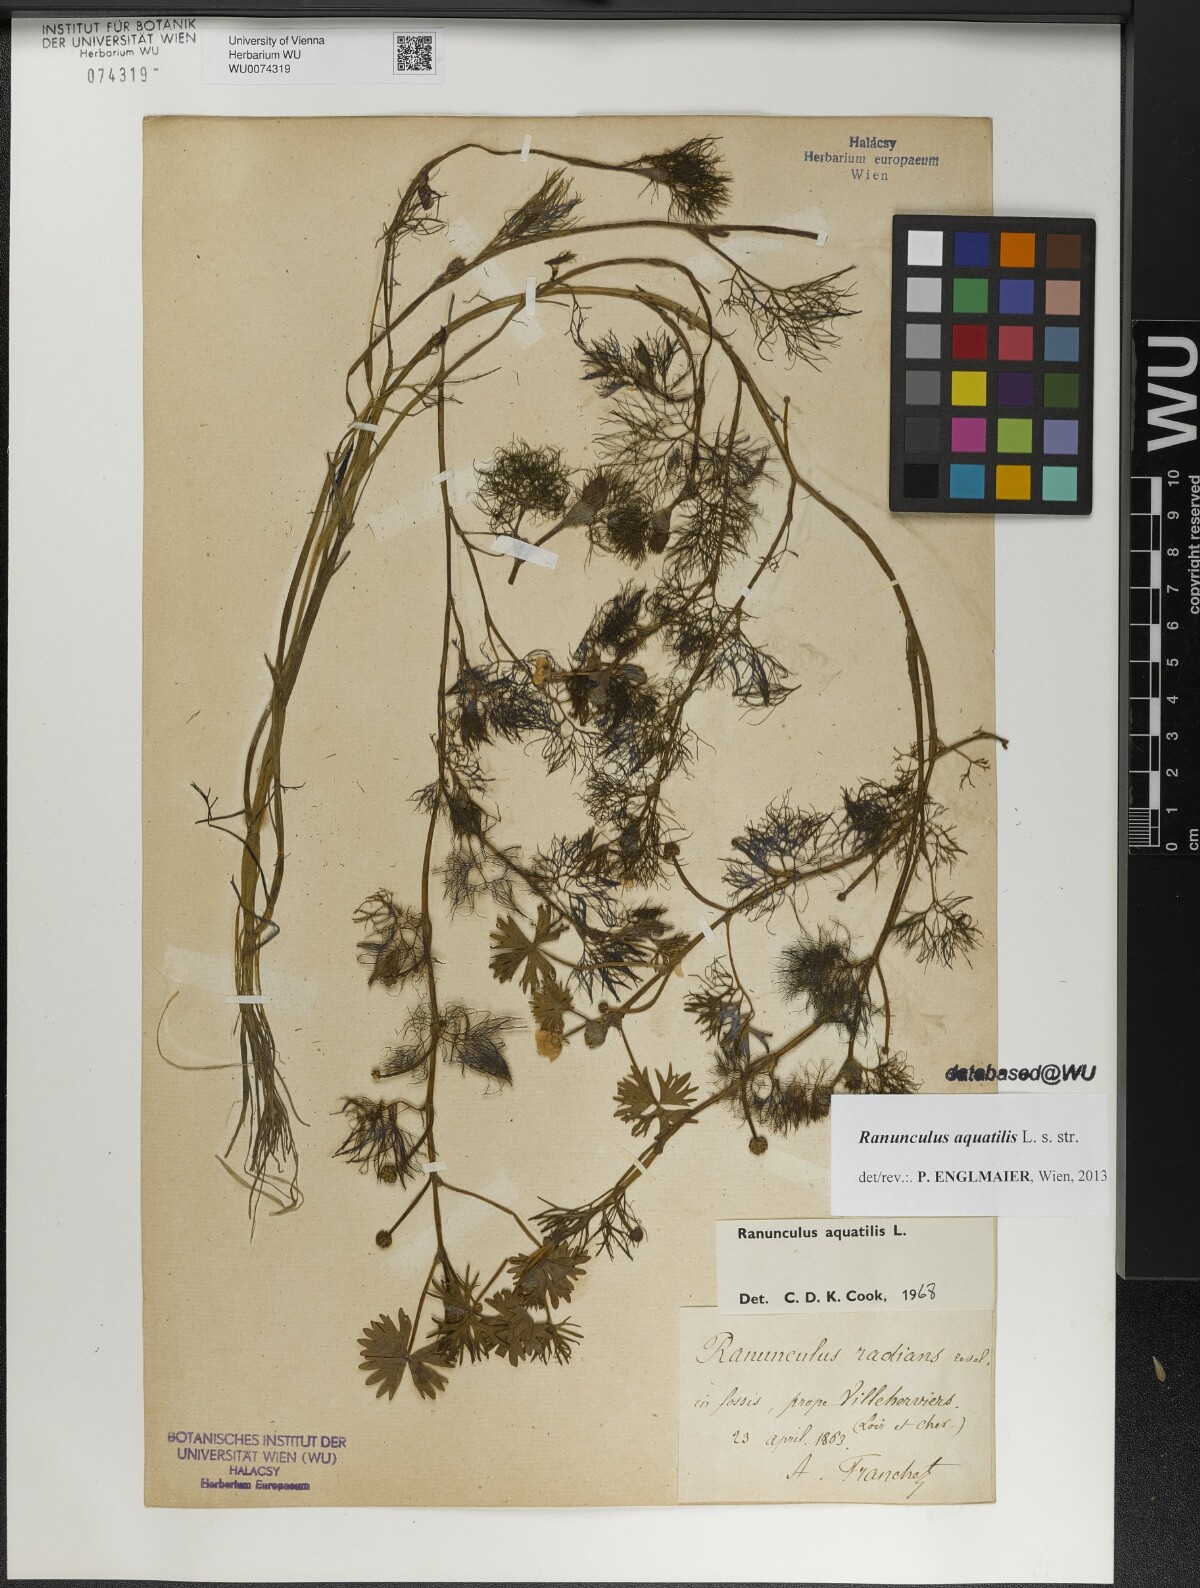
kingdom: Plantae
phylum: Tracheophyta
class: Magnoliopsida
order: Ranunculales
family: Ranunculaceae
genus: Ranunculus
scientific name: Ranunculus aquatilis
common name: Common water-crowfoot
